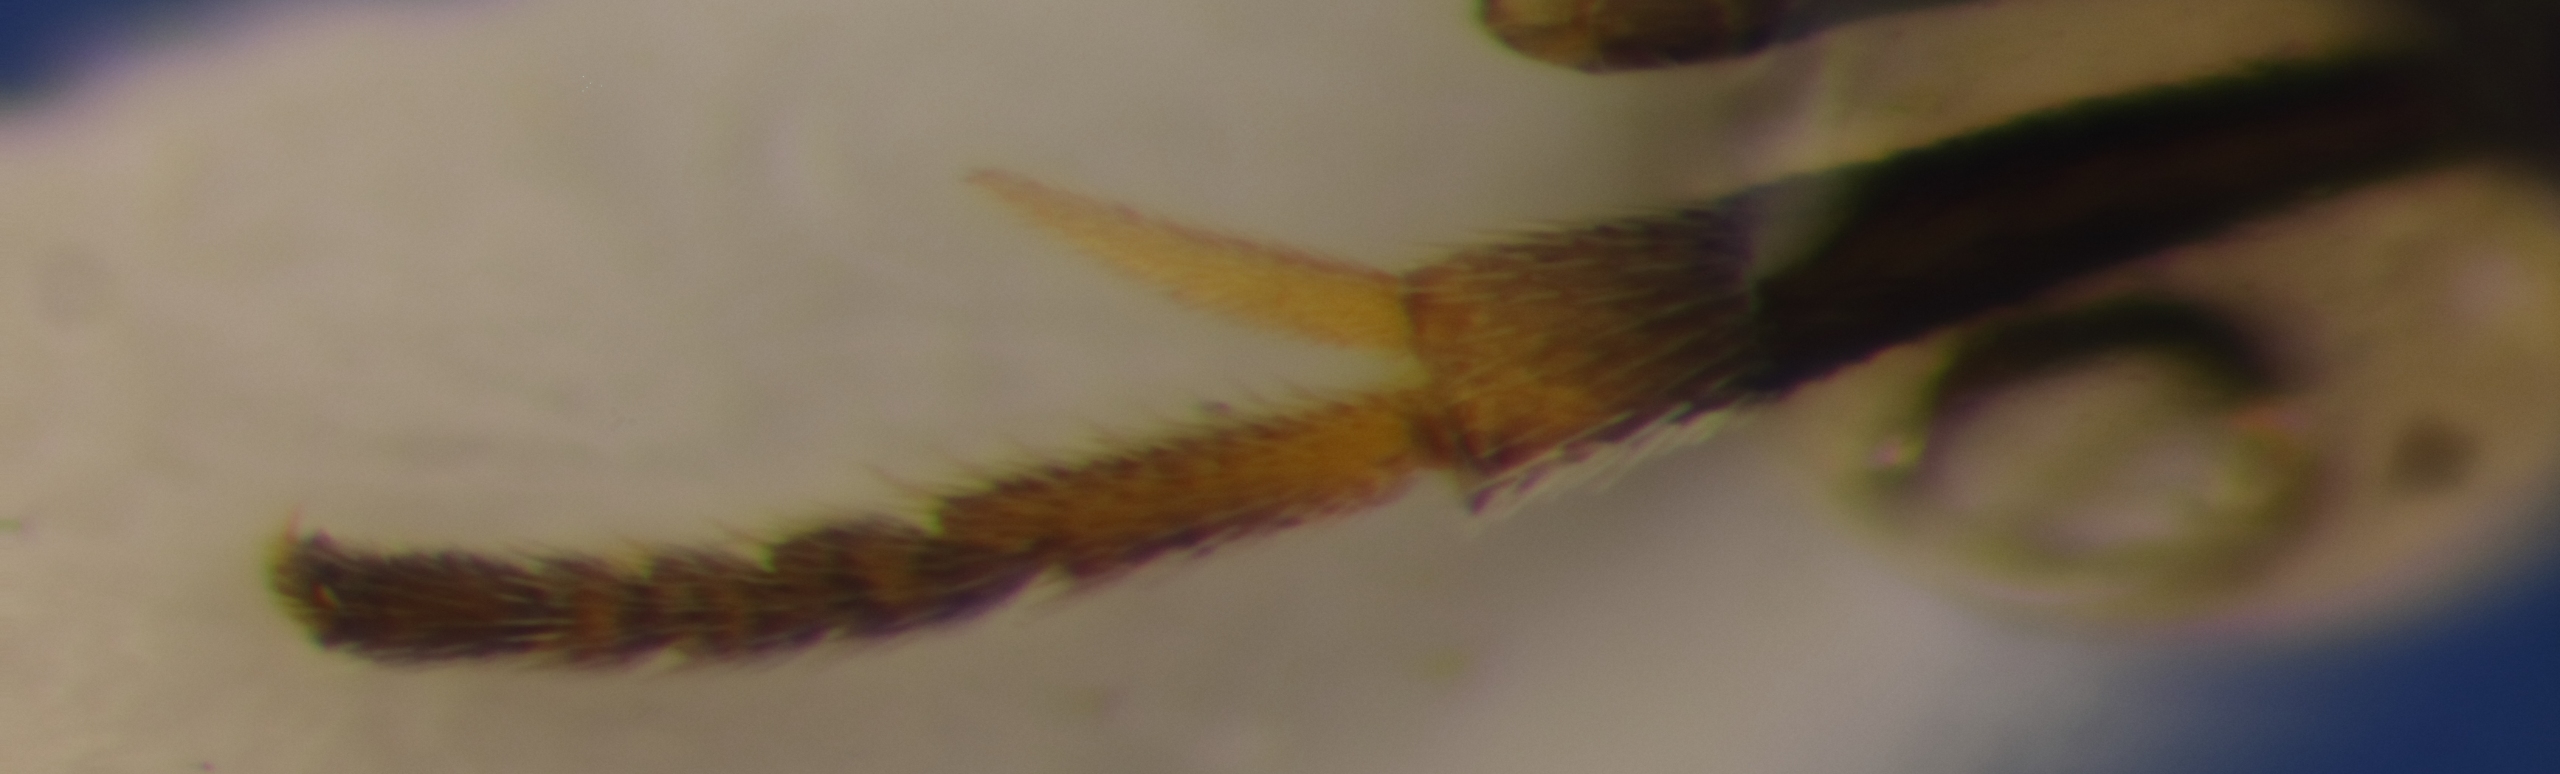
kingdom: Animalia
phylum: Arthropoda
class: Insecta
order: Hymenoptera
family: Encyrtidae
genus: Pseudencyrtus
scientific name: Pseudencyrtus misellus
